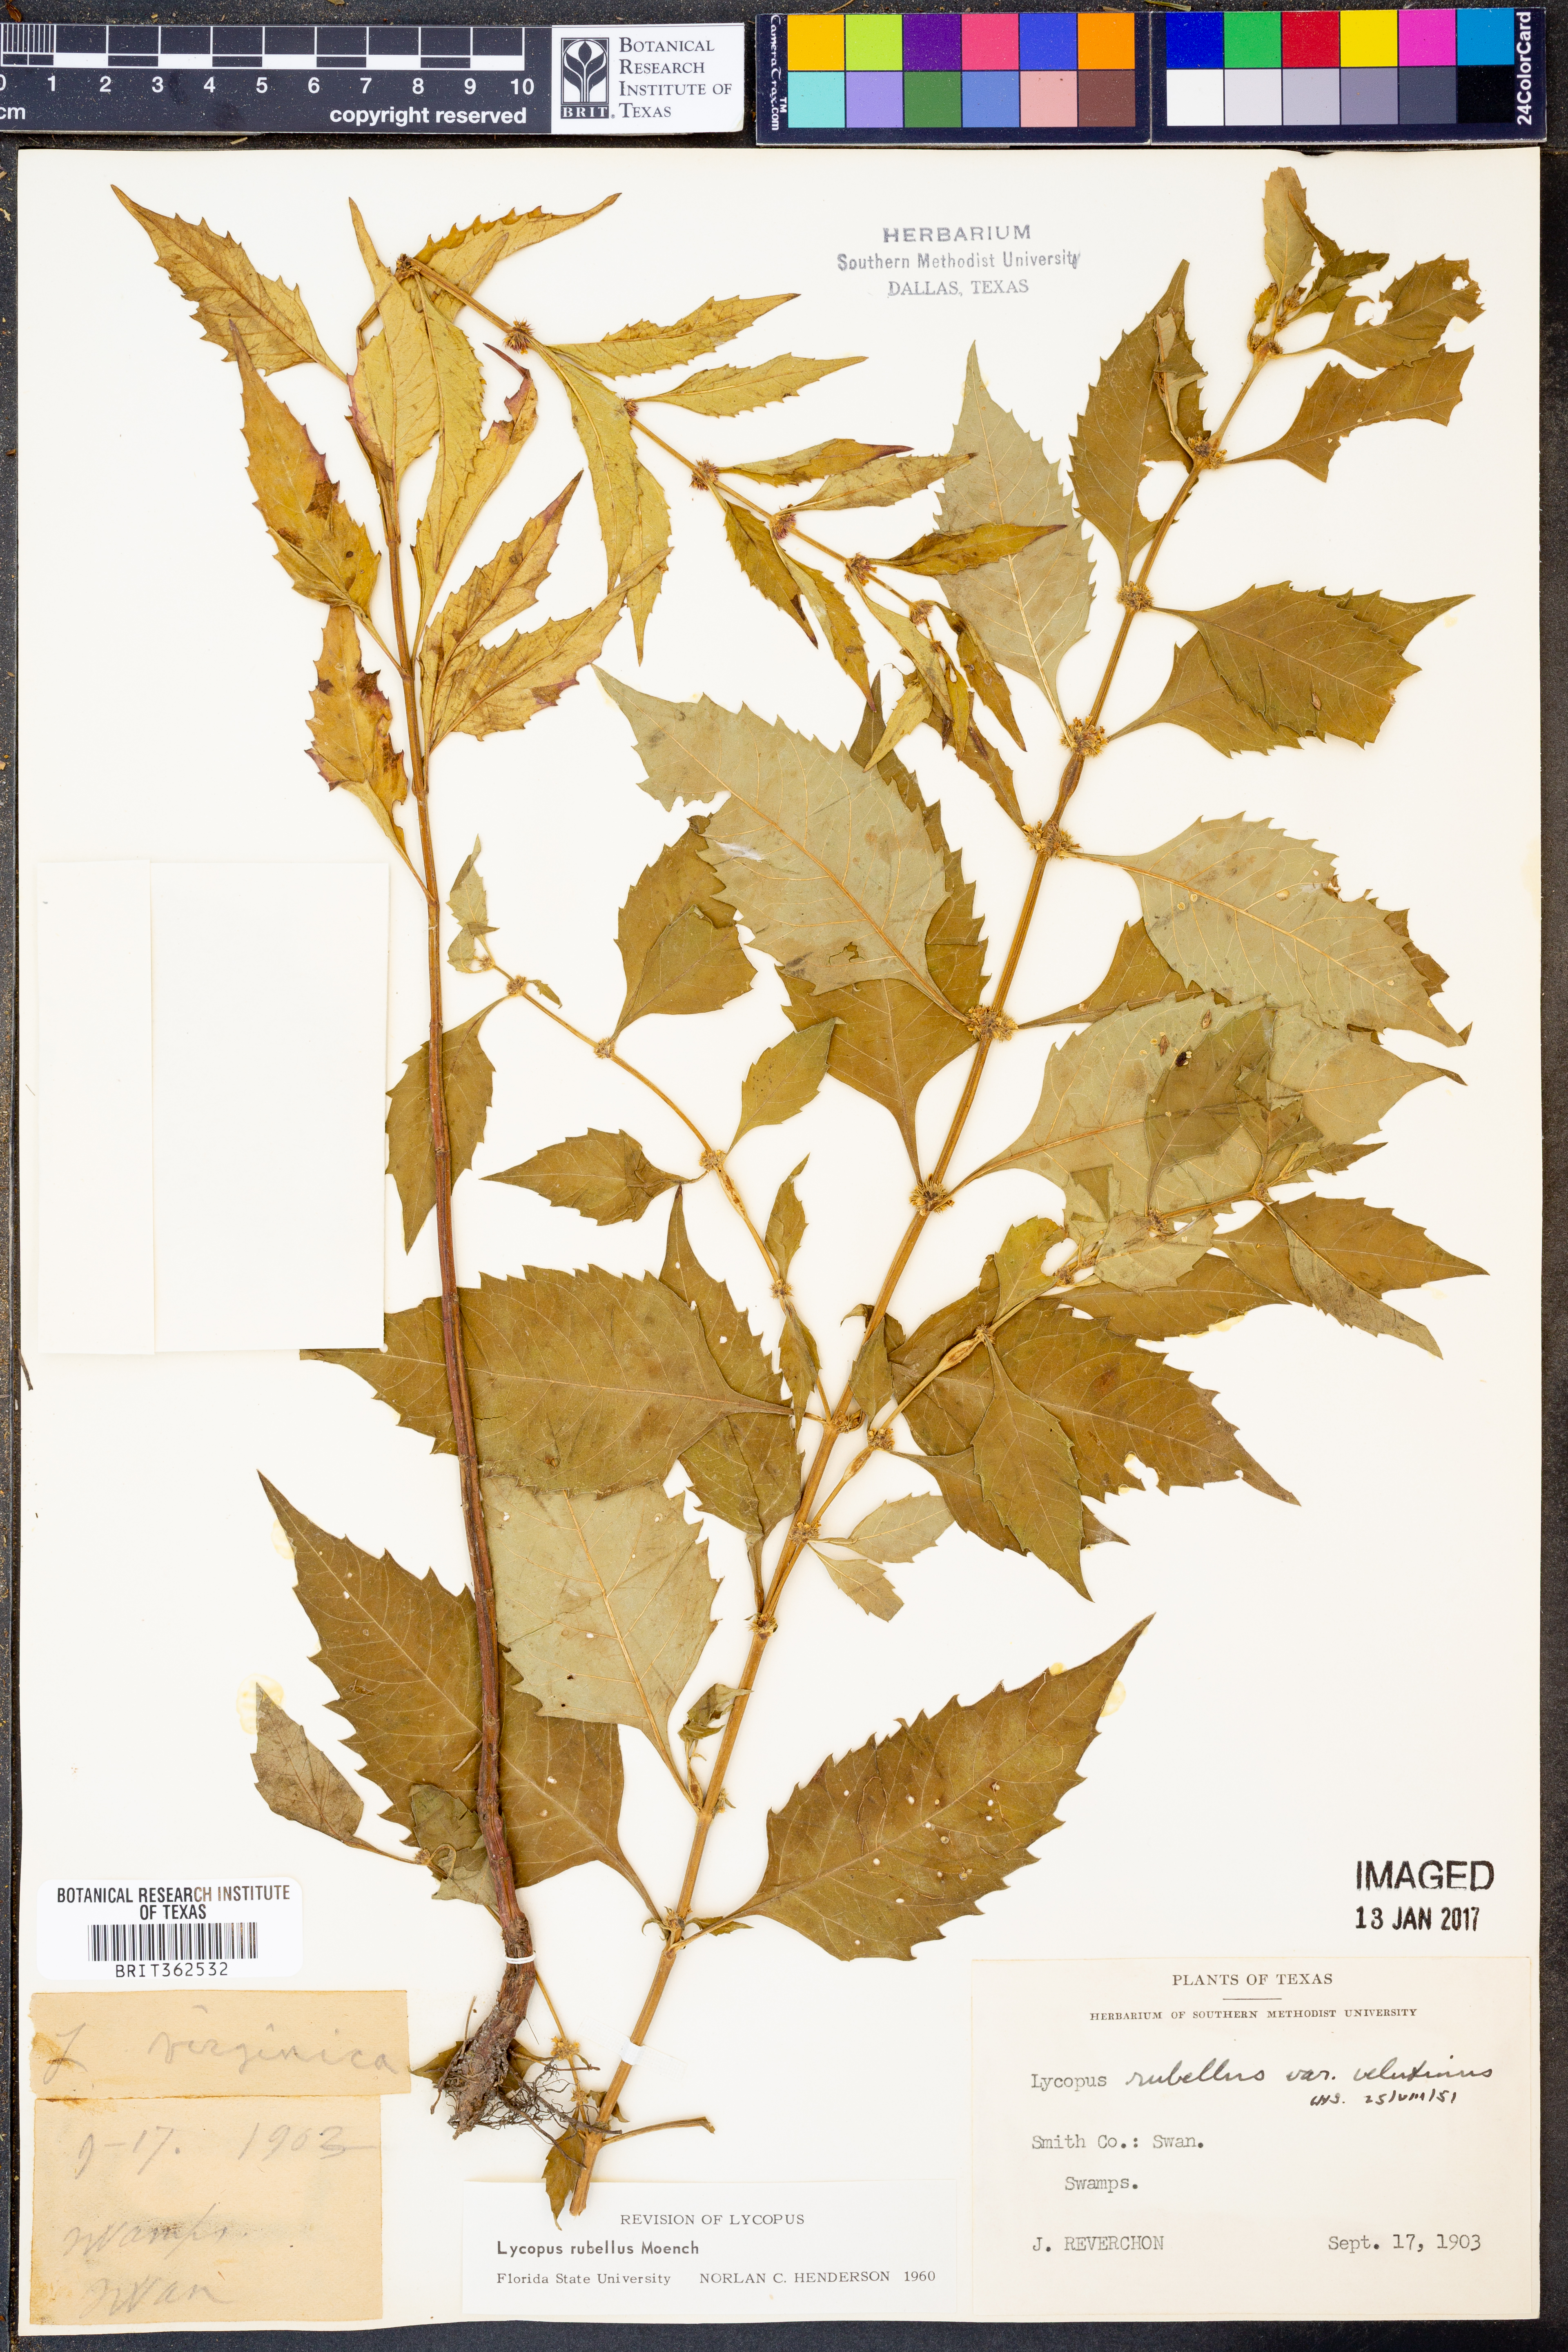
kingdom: Plantae
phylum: Tracheophyta
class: Magnoliopsida
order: Lamiales
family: Lamiaceae
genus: Lycopus
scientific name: Lycopus rubellus
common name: Stalked bugleweed
